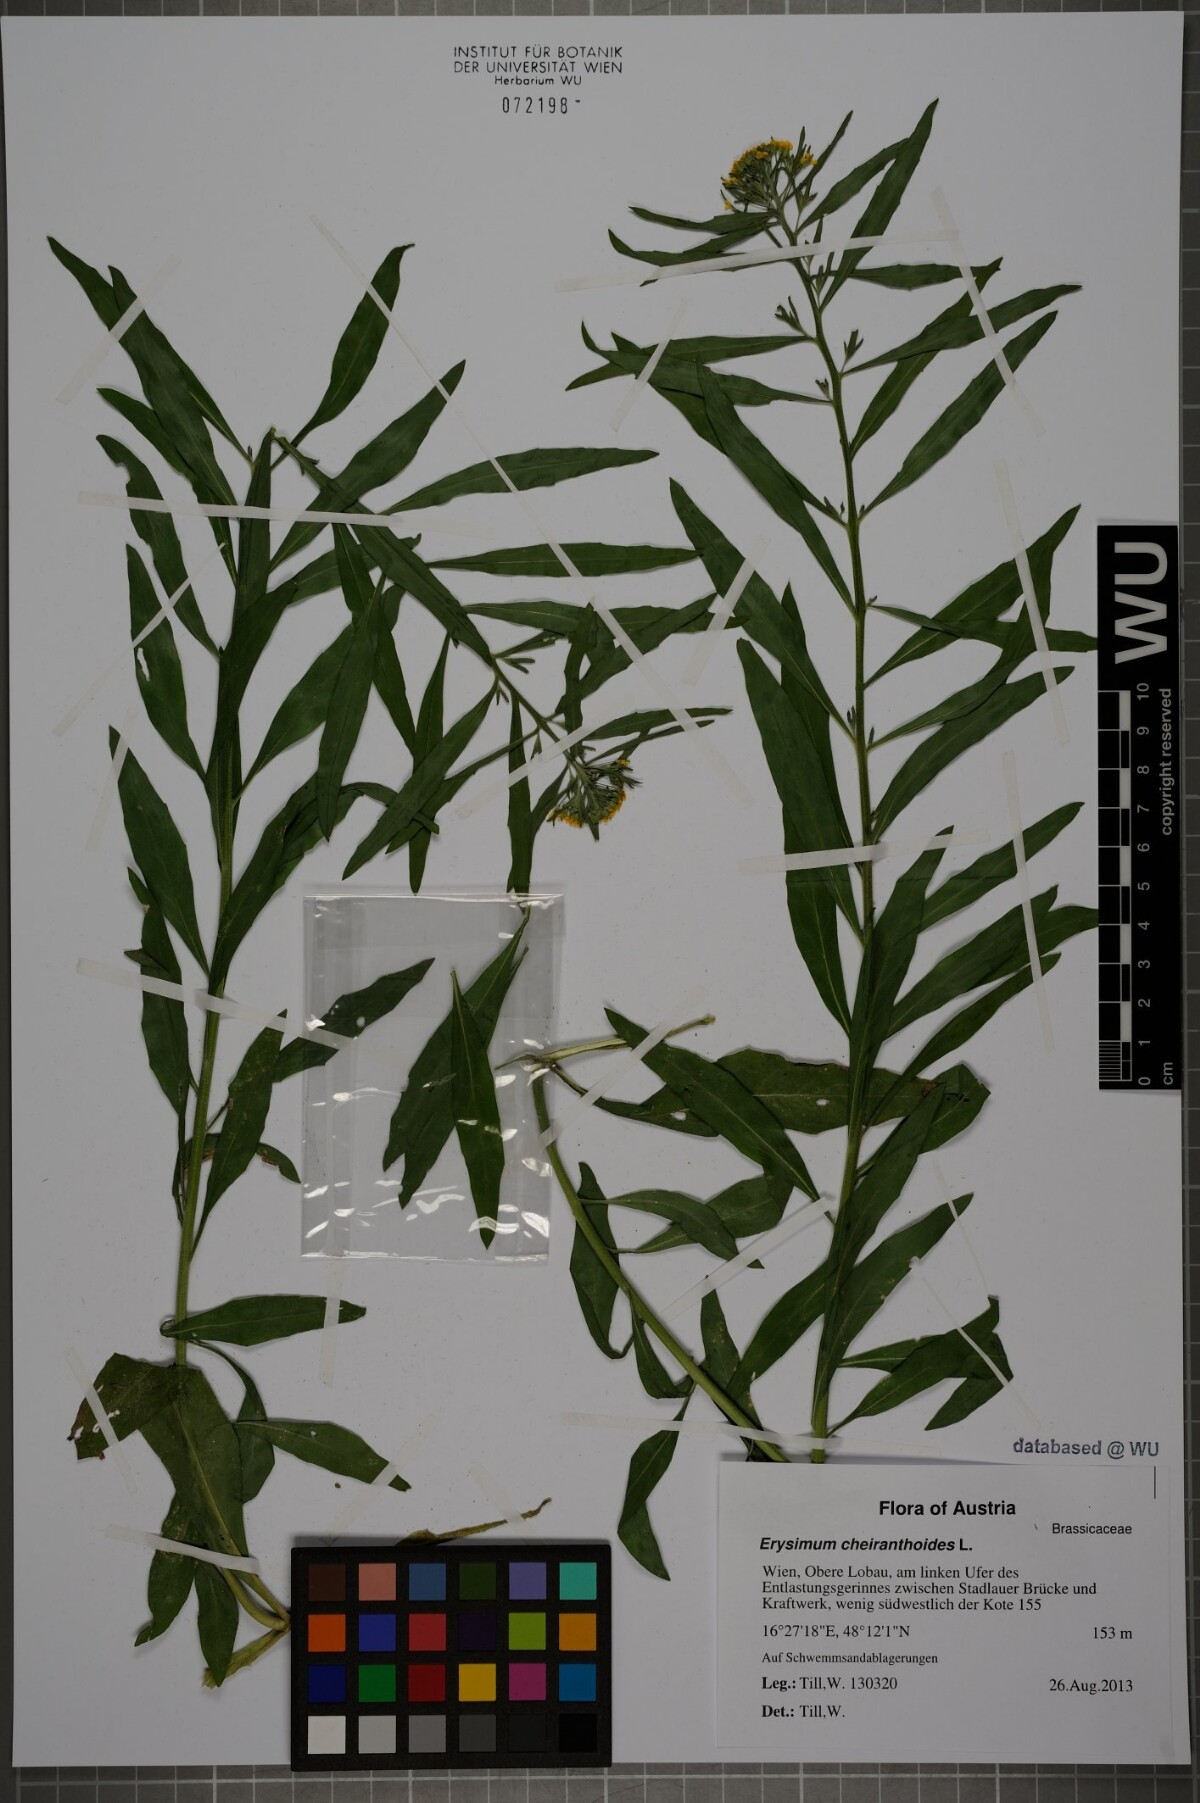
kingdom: Plantae
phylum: Tracheophyta
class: Magnoliopsida
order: Brassicales
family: Brassicaceae
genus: Erysimum
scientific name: Erysimum cheiranthoides
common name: Treacle mustard
